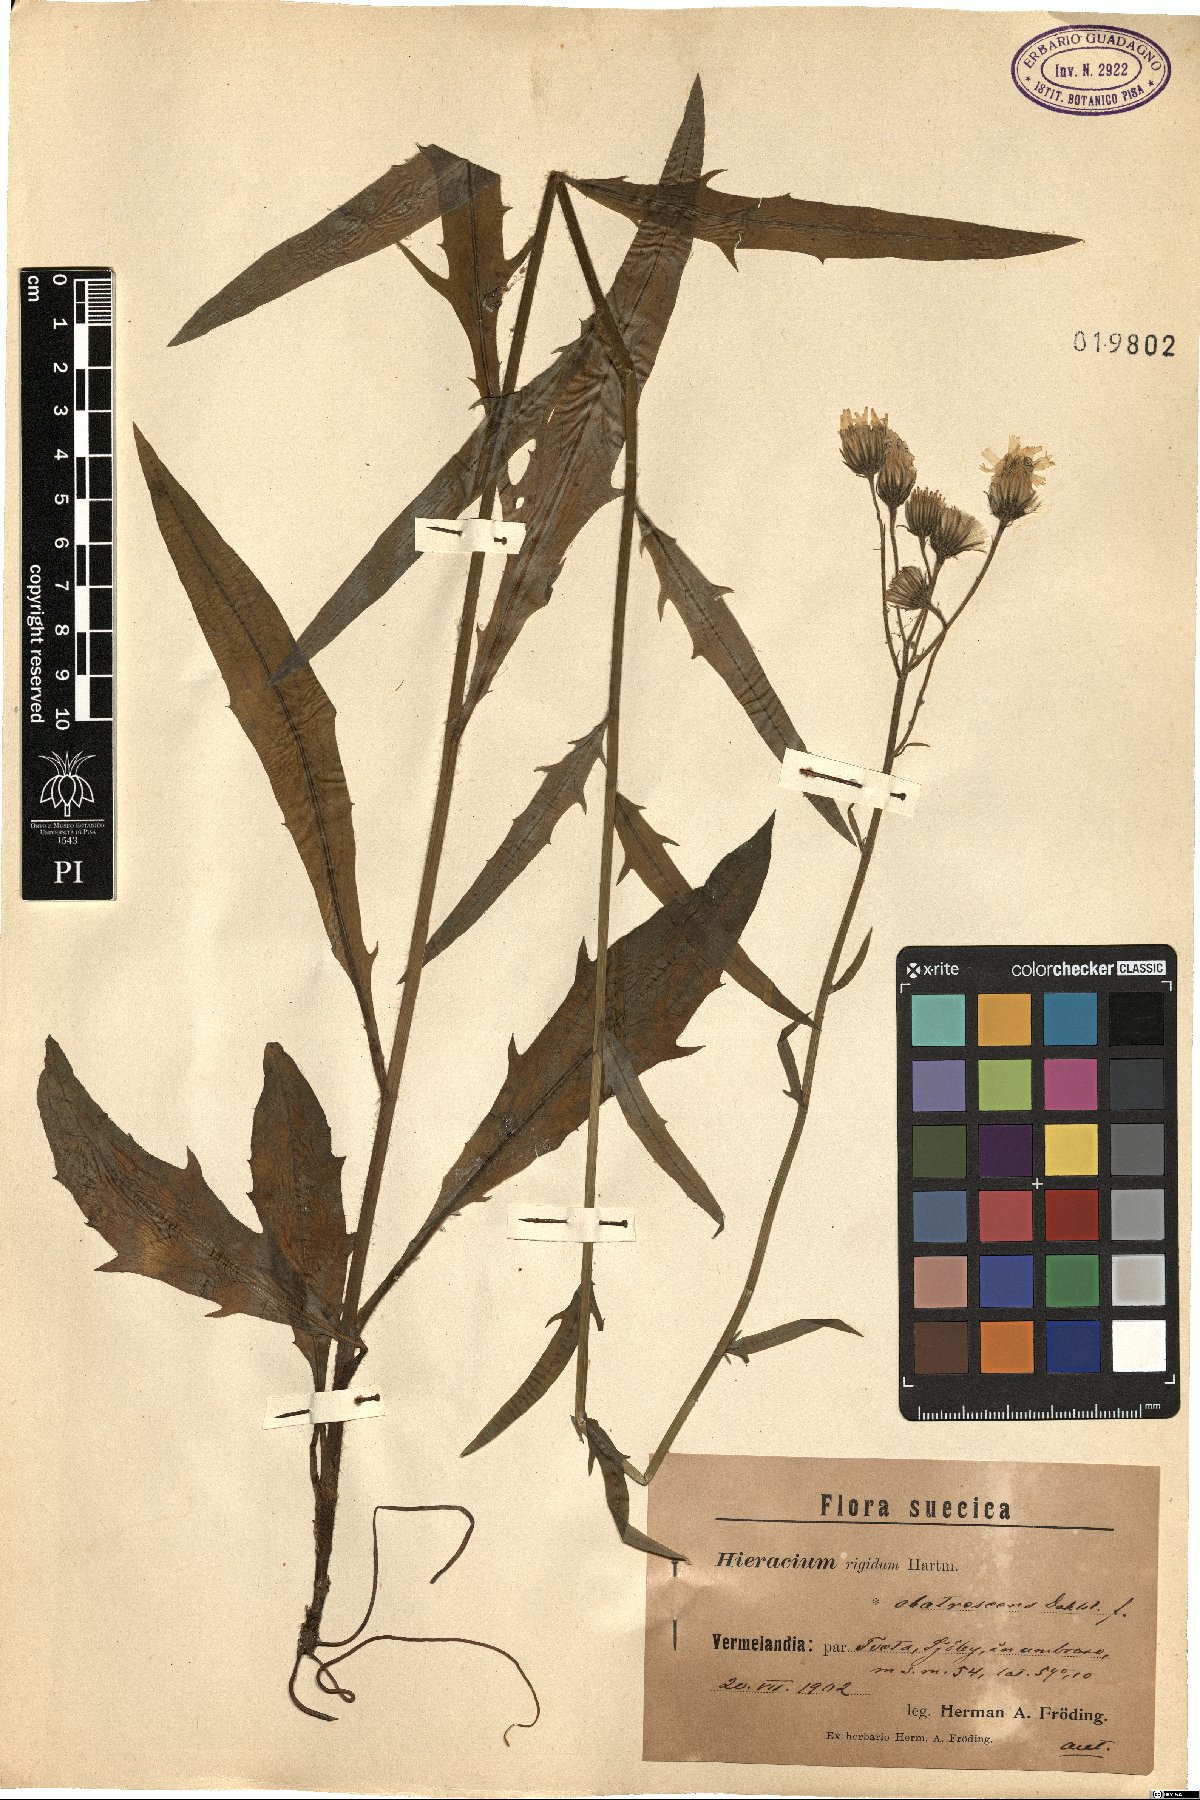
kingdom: Plantae
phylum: Tracheophyta
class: Magnoliopsida
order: Asterales
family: Asteraceae
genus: Hieracium
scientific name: Hieracium laevigatum
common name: Smooth hawkweed
